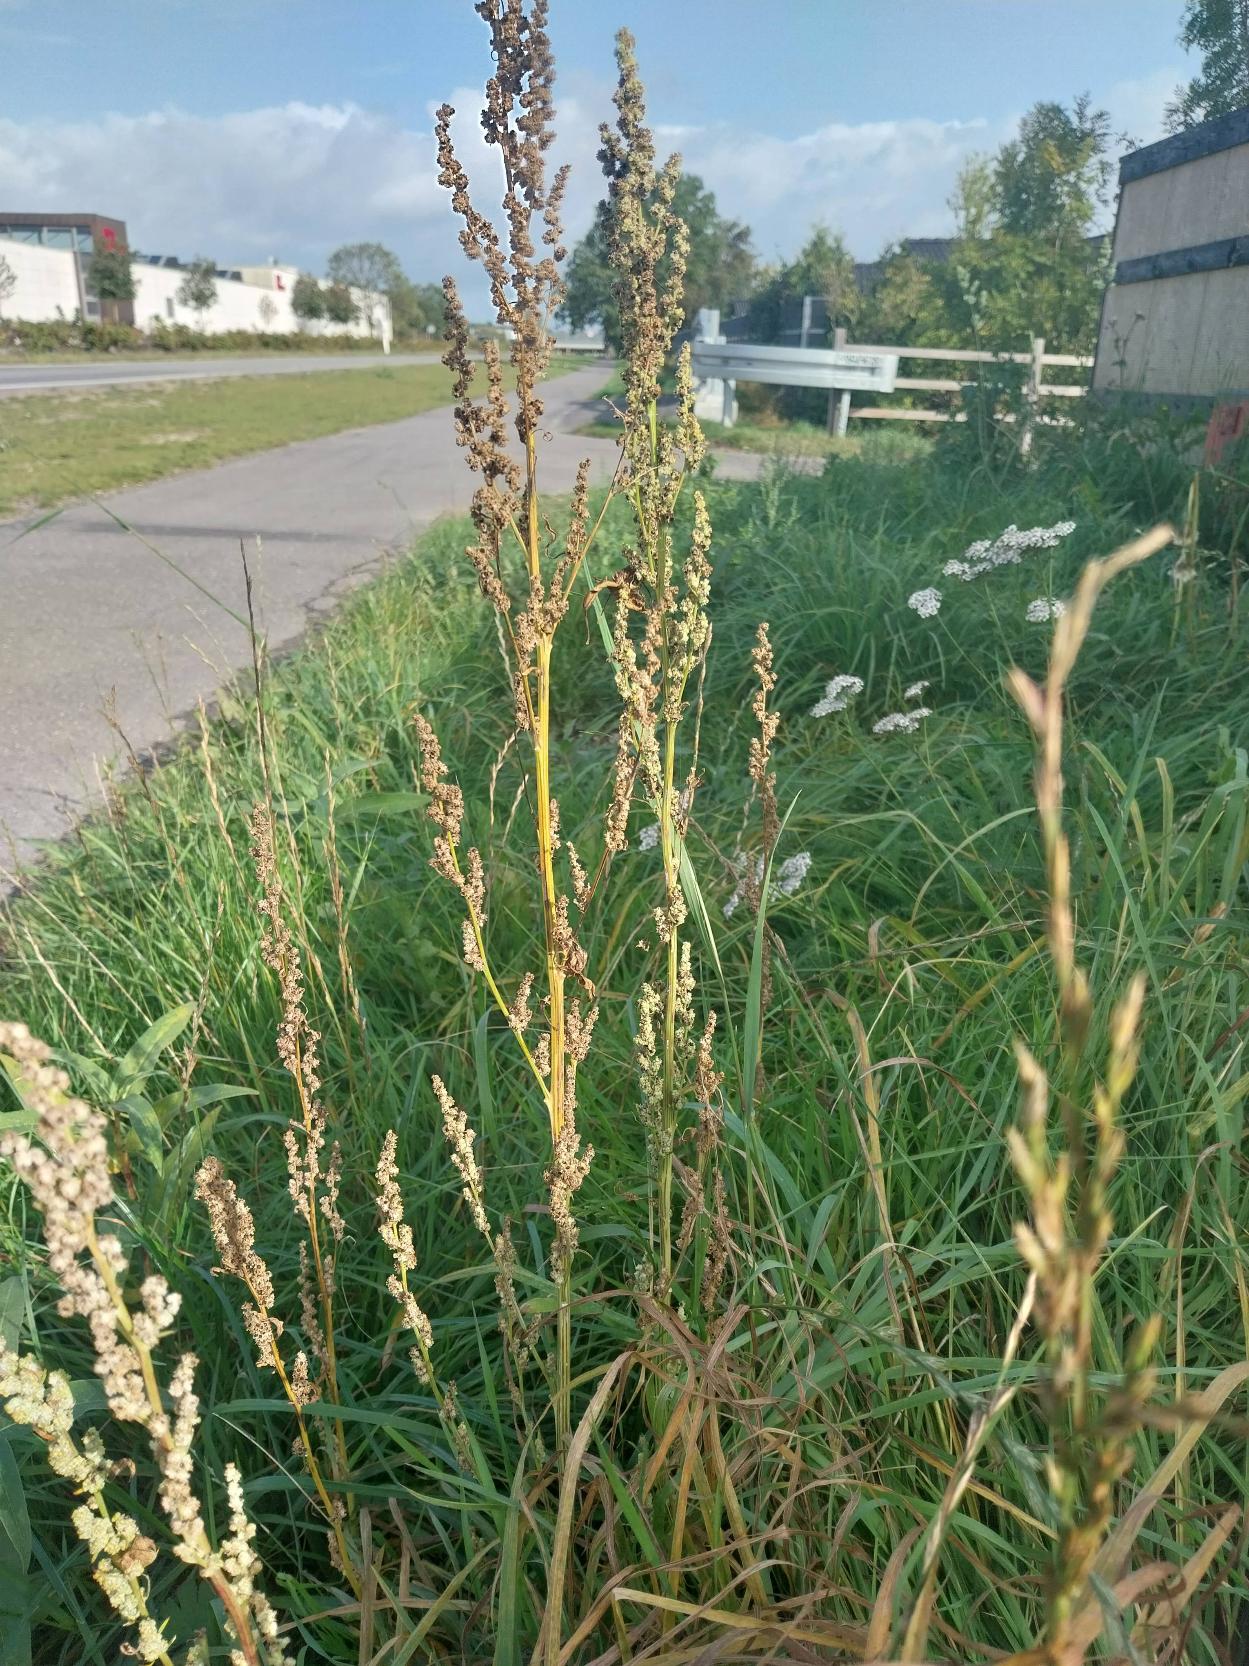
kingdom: Plantae
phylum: Tracheophyta
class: Magnoliopsida
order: Caryophyllales
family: Amaranthaceae
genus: Chenopodium
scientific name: Chenopodium album
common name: Hvidmelet gåsefod
